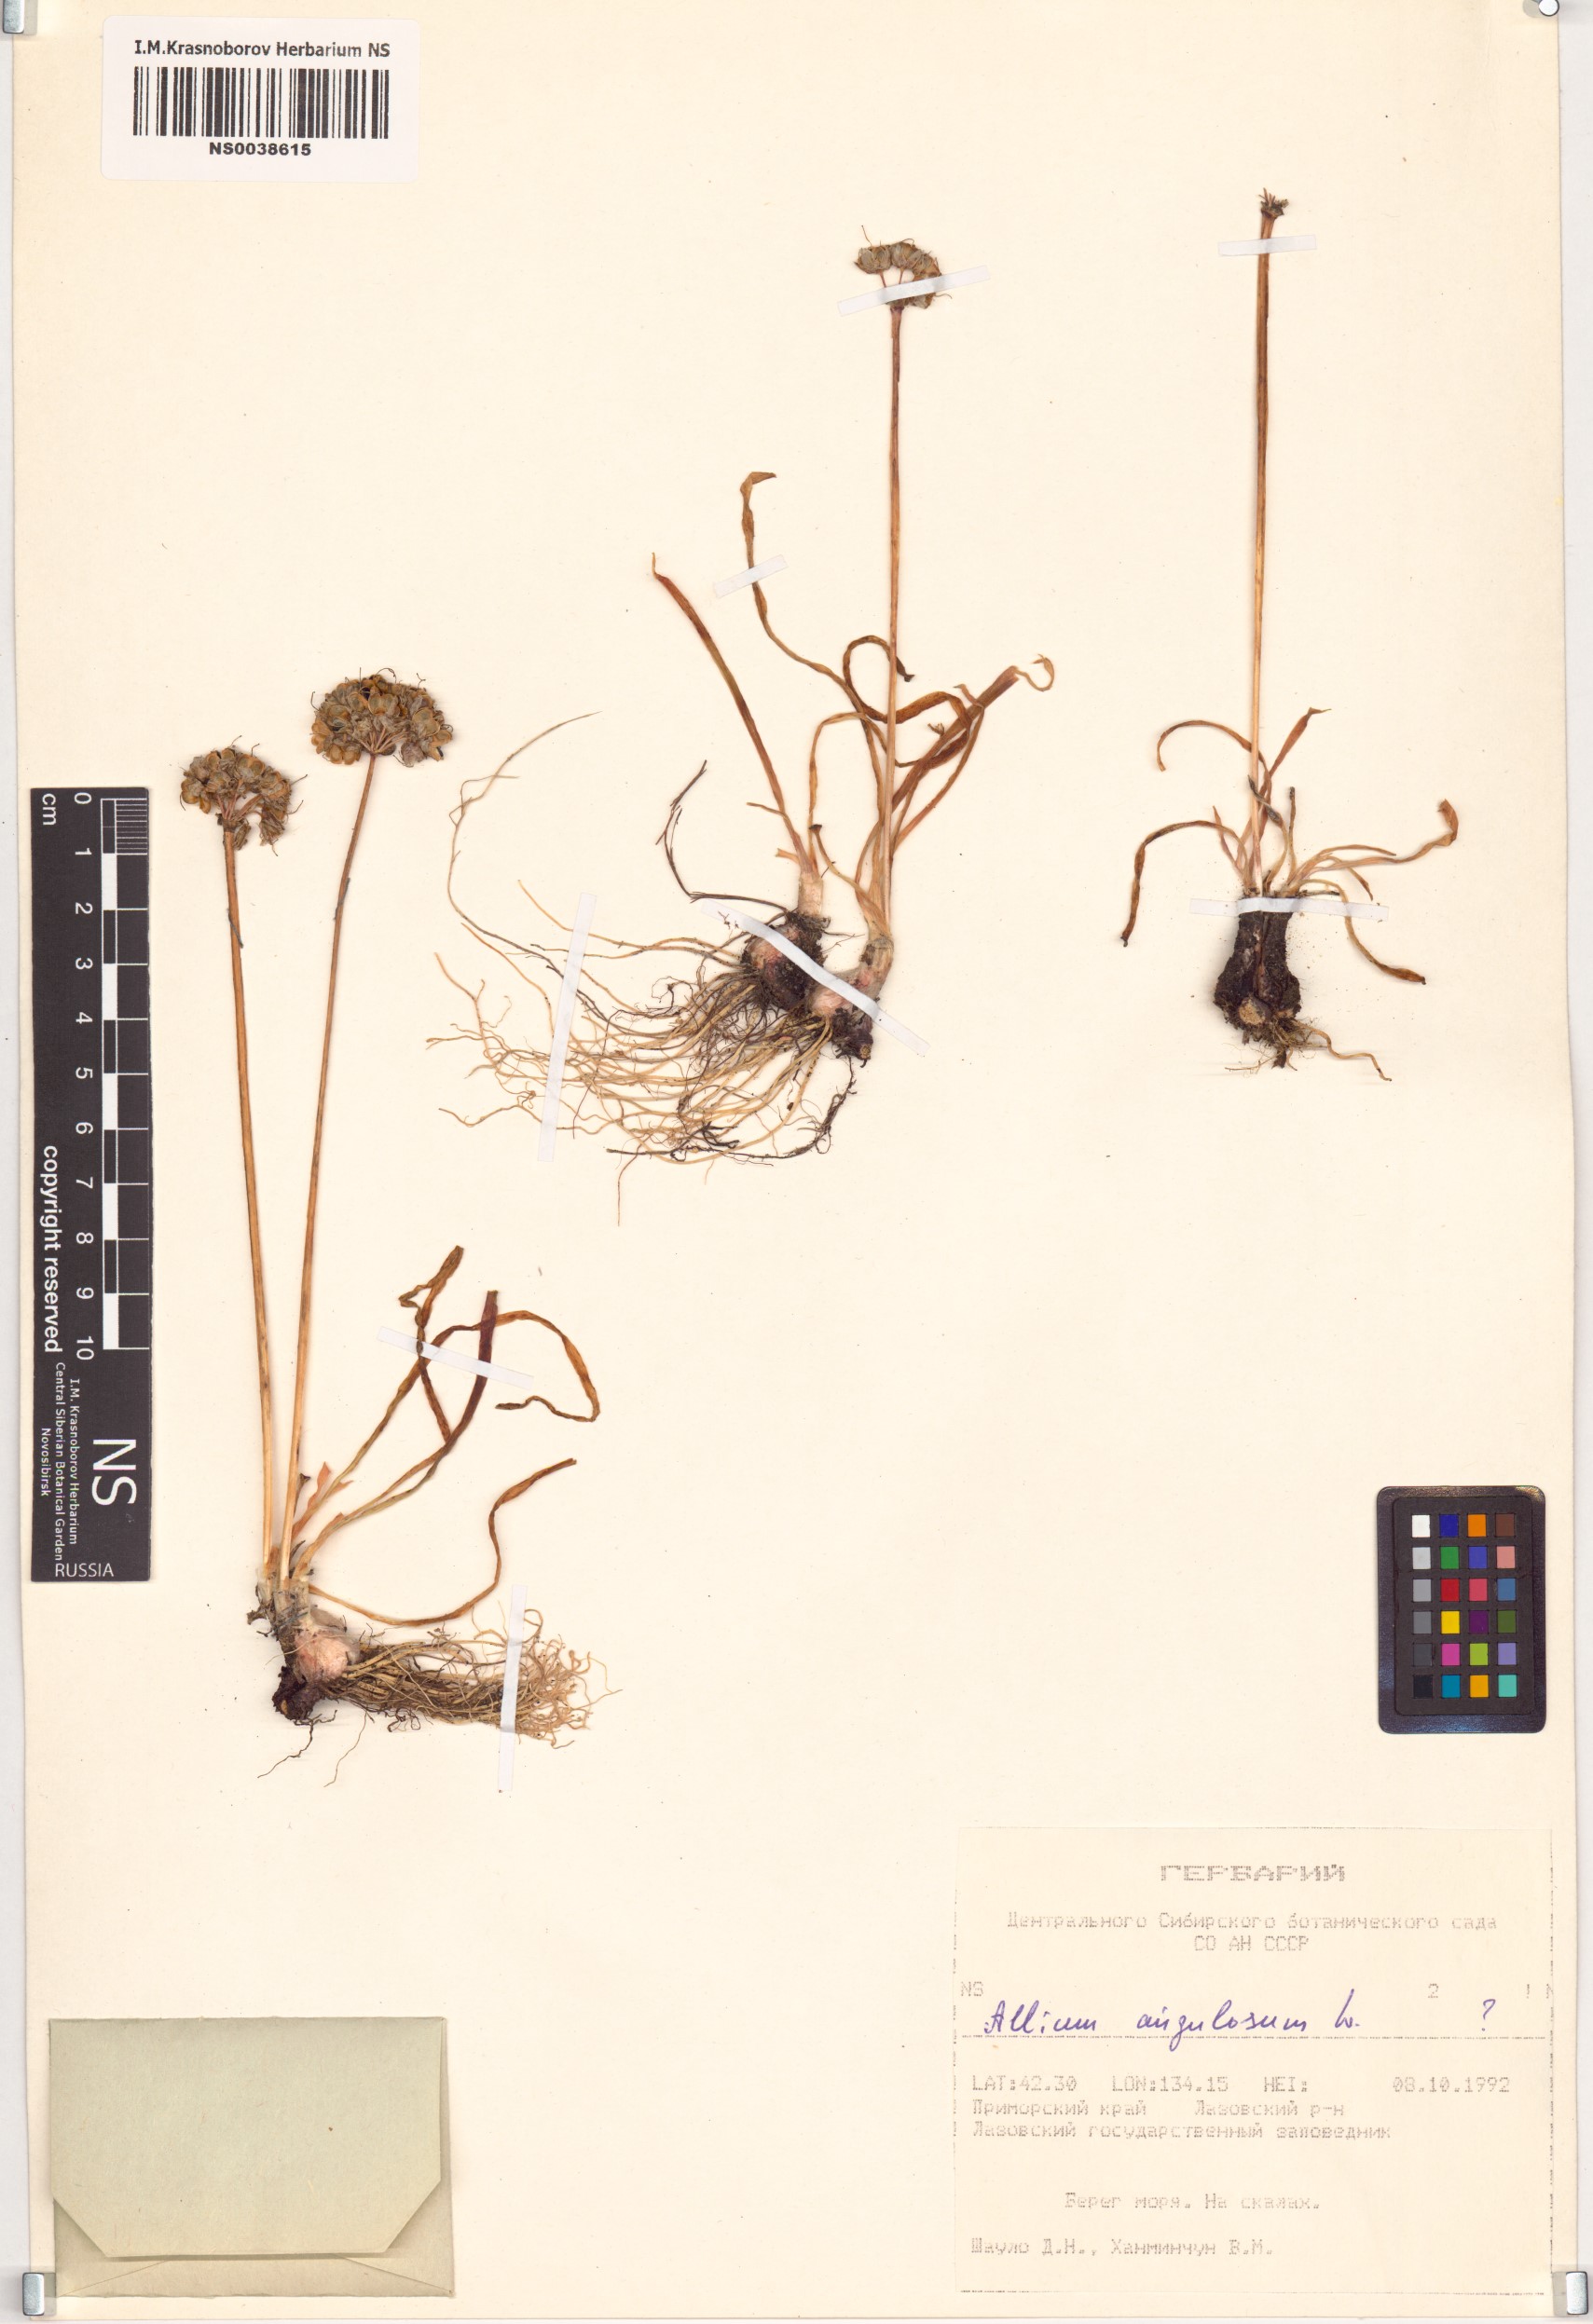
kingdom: Plantae
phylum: Tracheophyta
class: Liliopsida
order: Asparagales
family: Amaryllidaceae
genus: Allium
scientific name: Allium angulosum
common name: Mouse garlic
